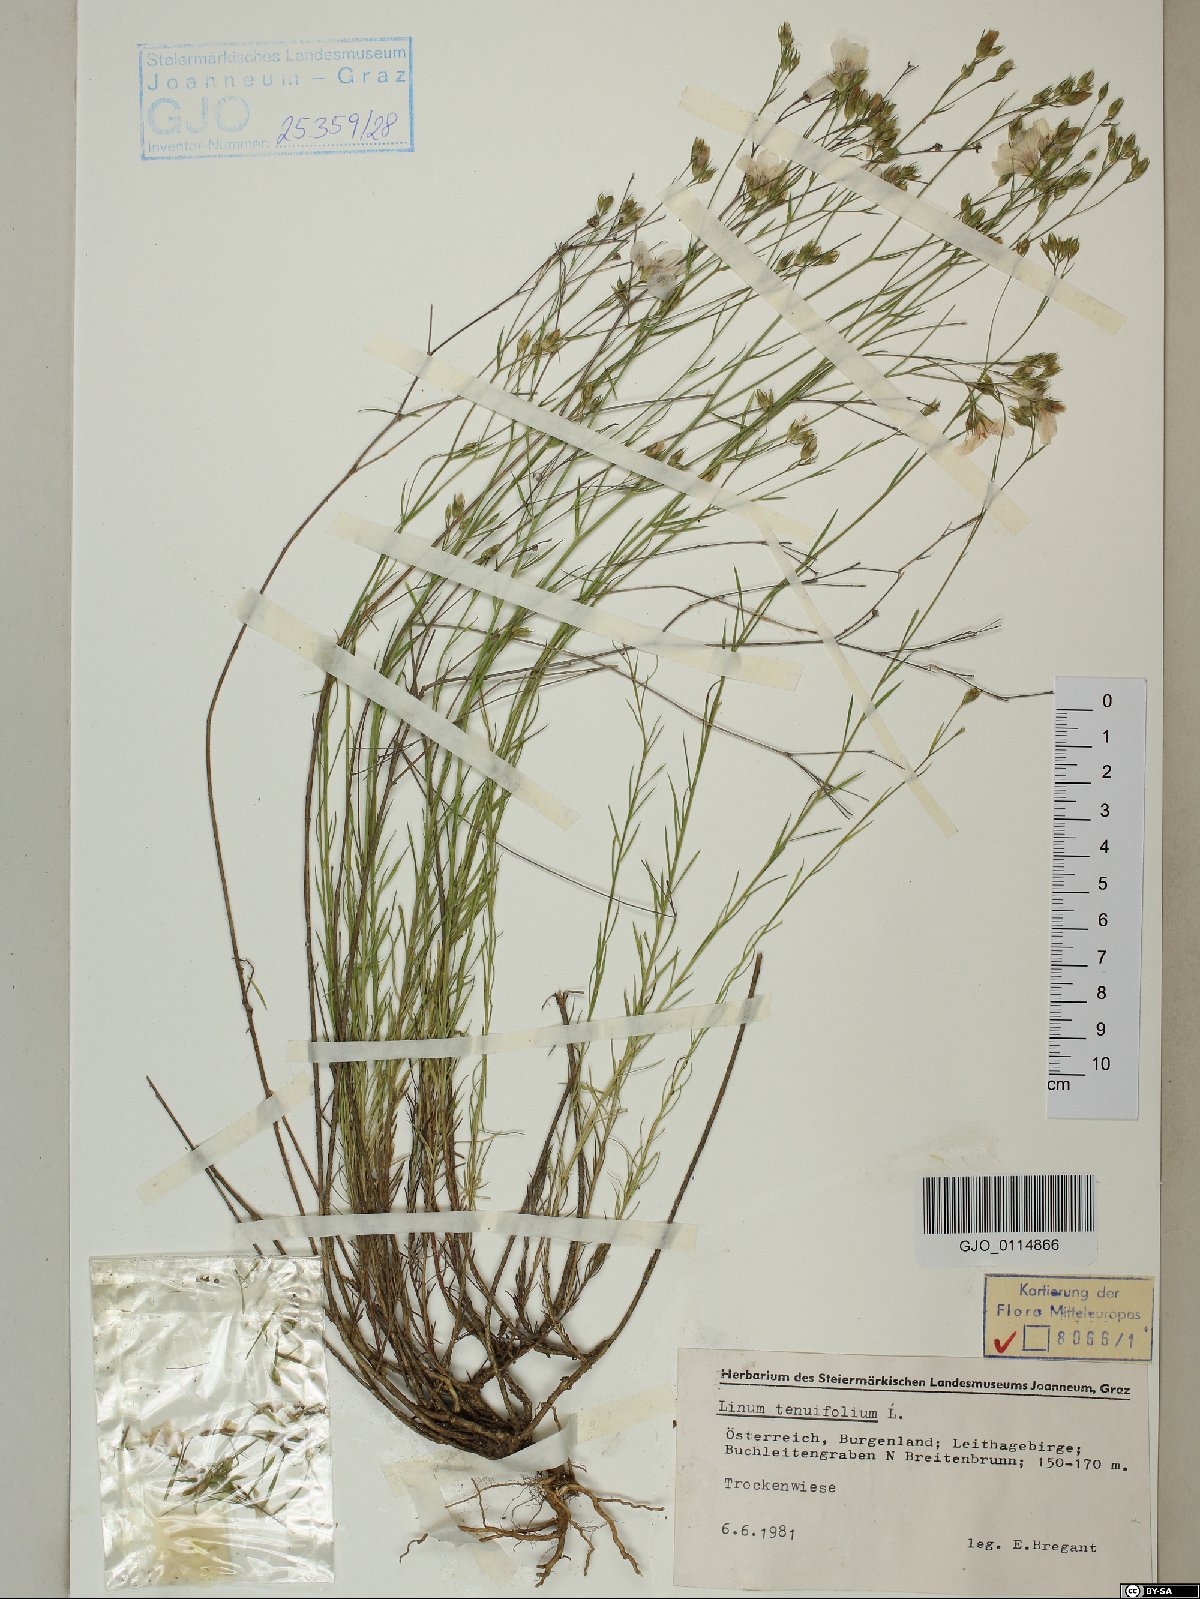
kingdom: Plantae
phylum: Tracheophyta
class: Magnoliopsida
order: Malpighiales
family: Linaceae
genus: Linum
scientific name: Linum tenuifolium
